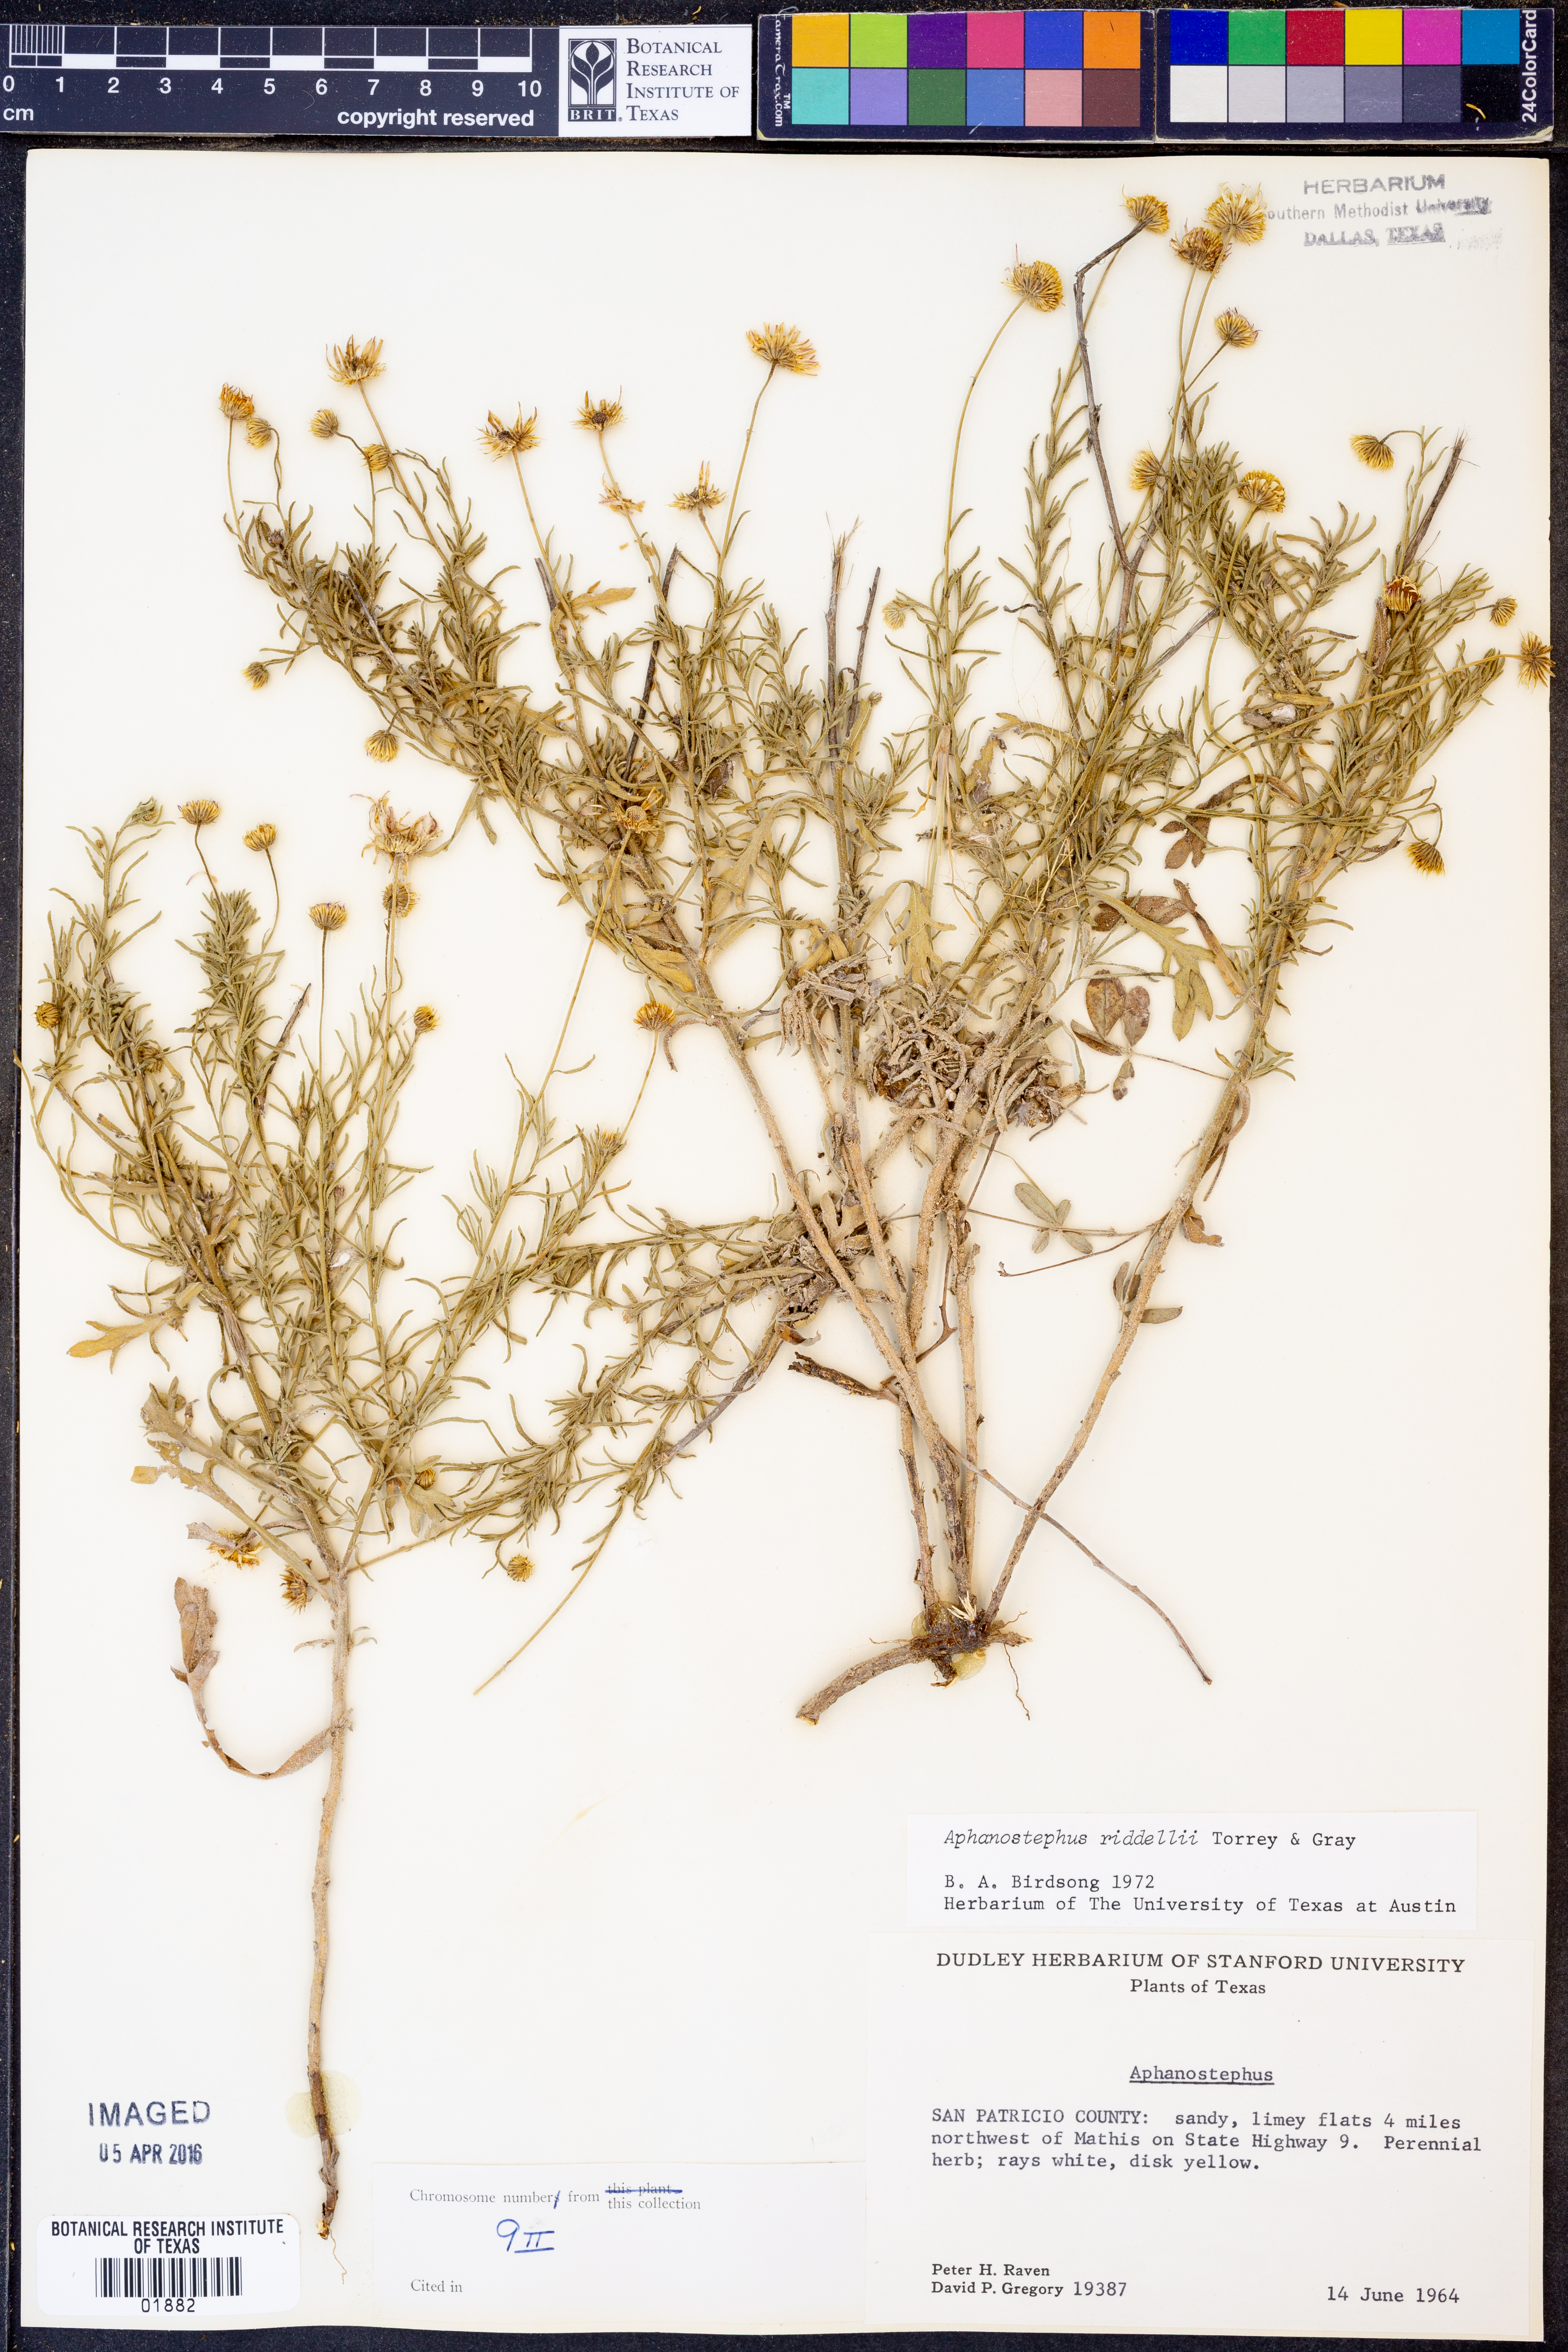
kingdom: Plantae
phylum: Tracheophyta
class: Magnoliopsida
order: Asterales
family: Asteraceae
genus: Aphanostephus
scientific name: Aphanostephus riddellii
